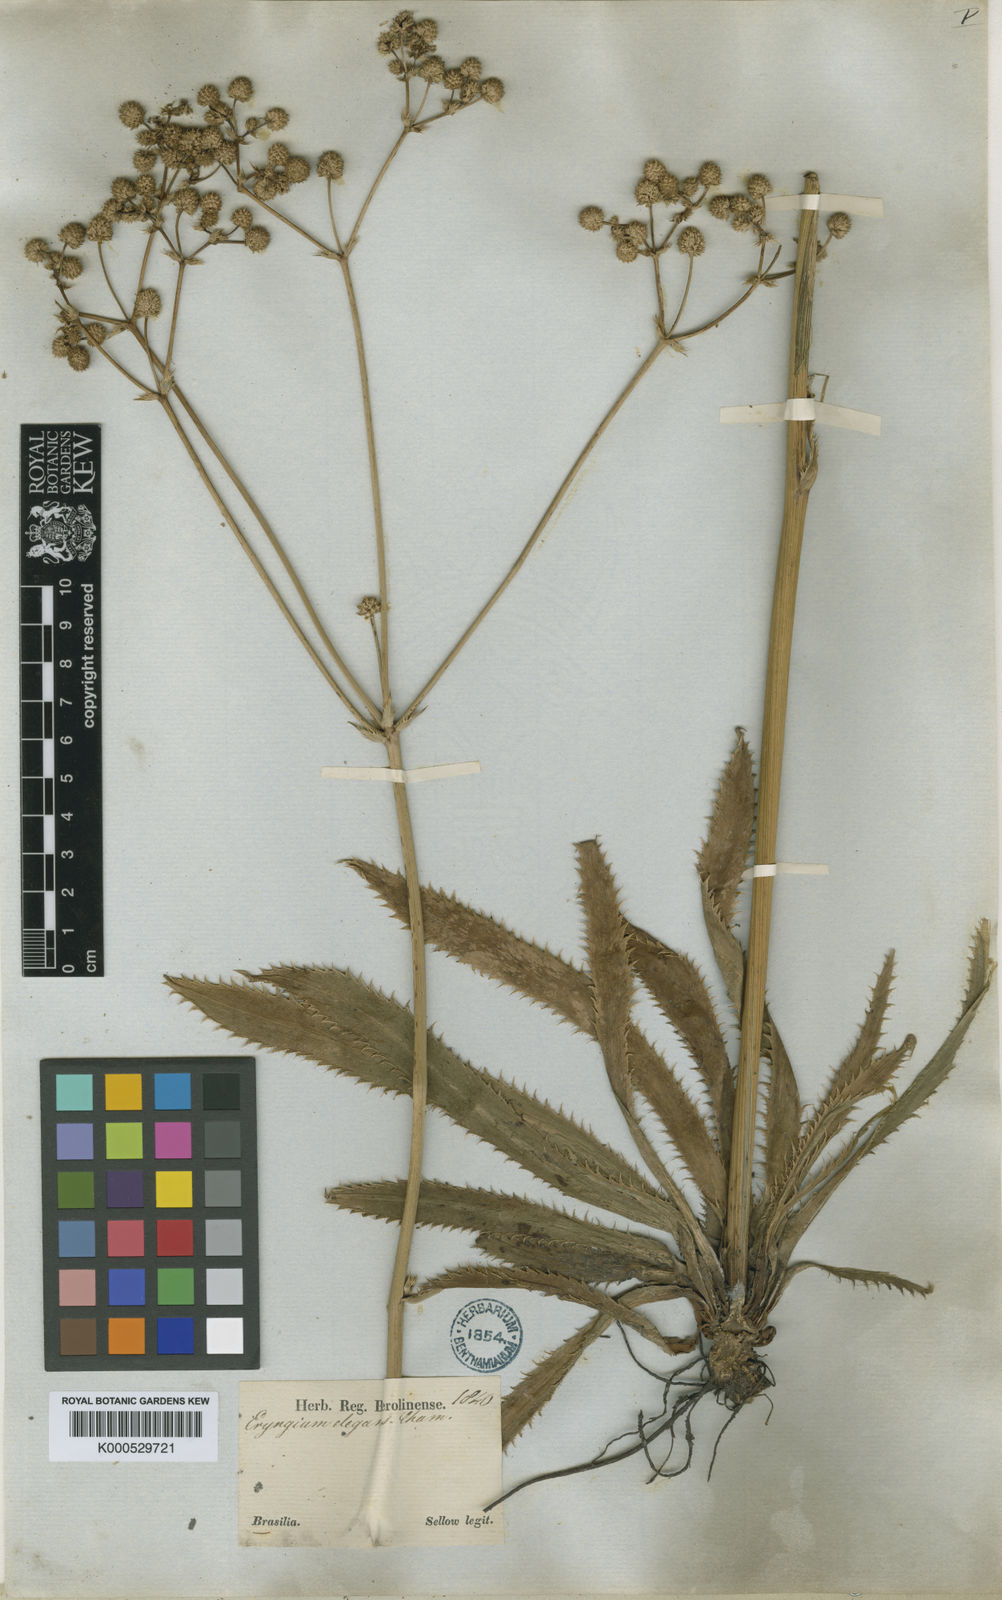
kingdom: Plantae
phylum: Tracheophyta
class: Magnoliopsida
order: Apiales
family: Apiaceae
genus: Eryngium
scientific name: Eryngium elegans
